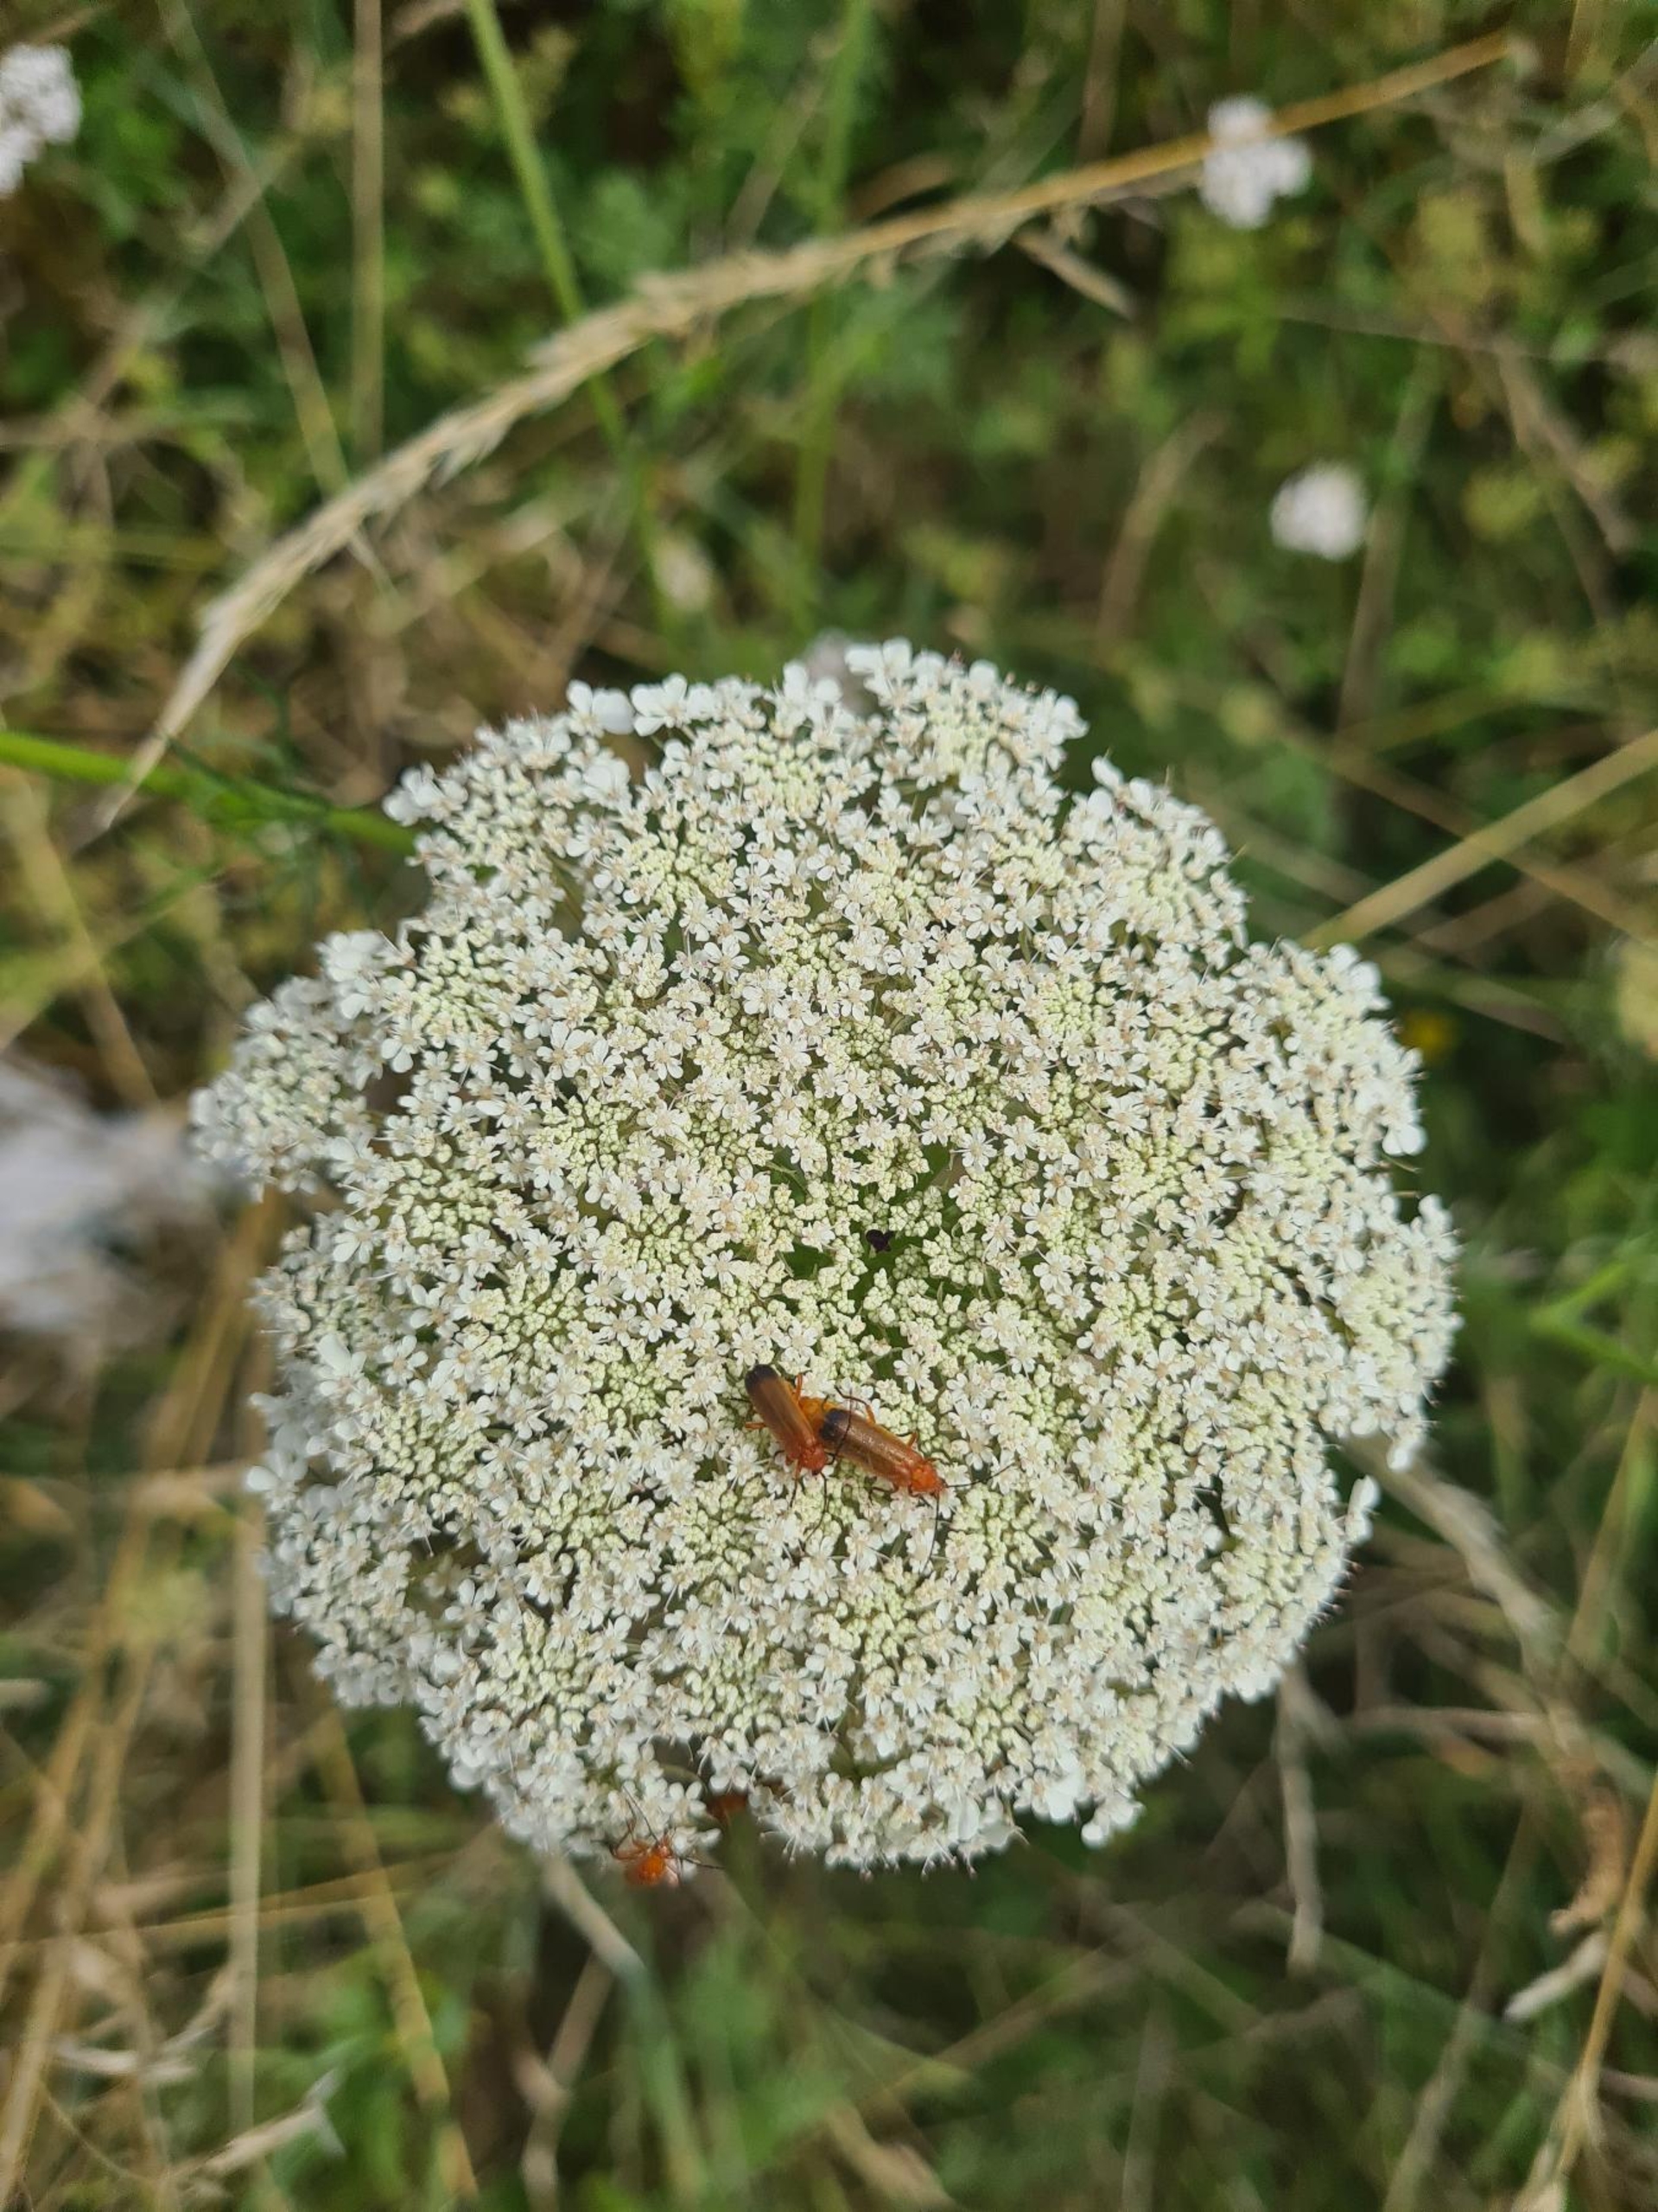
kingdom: Plantae
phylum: Tracheophyta
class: Magnoliopsida
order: Apiales
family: Apiaceae
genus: Daucus
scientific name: Daucus carota
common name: Vild gulerod
